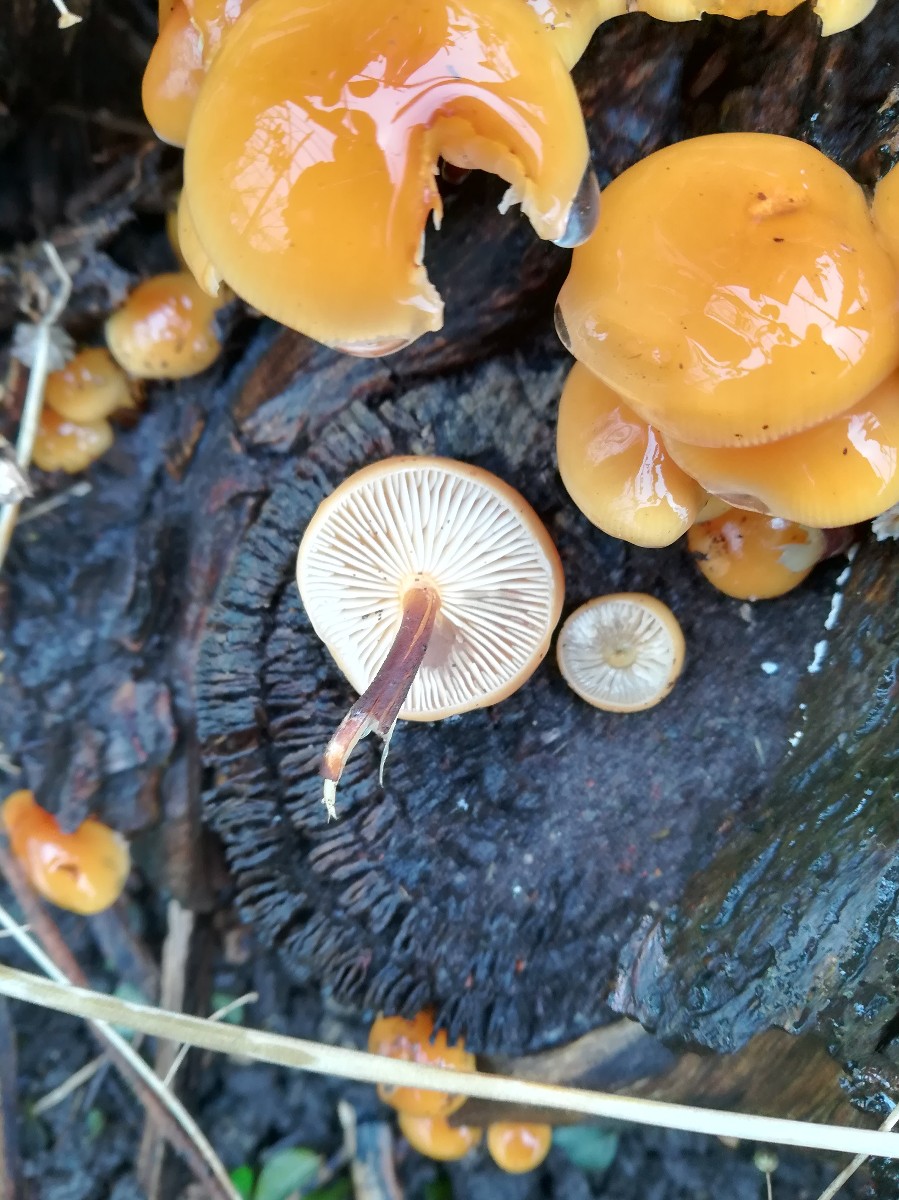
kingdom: Fungi
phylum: Basidiomycota
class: Agaricomycetes
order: Agaricales
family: Physalacriaceae
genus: Flammulina
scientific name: Flammulina velutipes
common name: gul fløjlsfod
